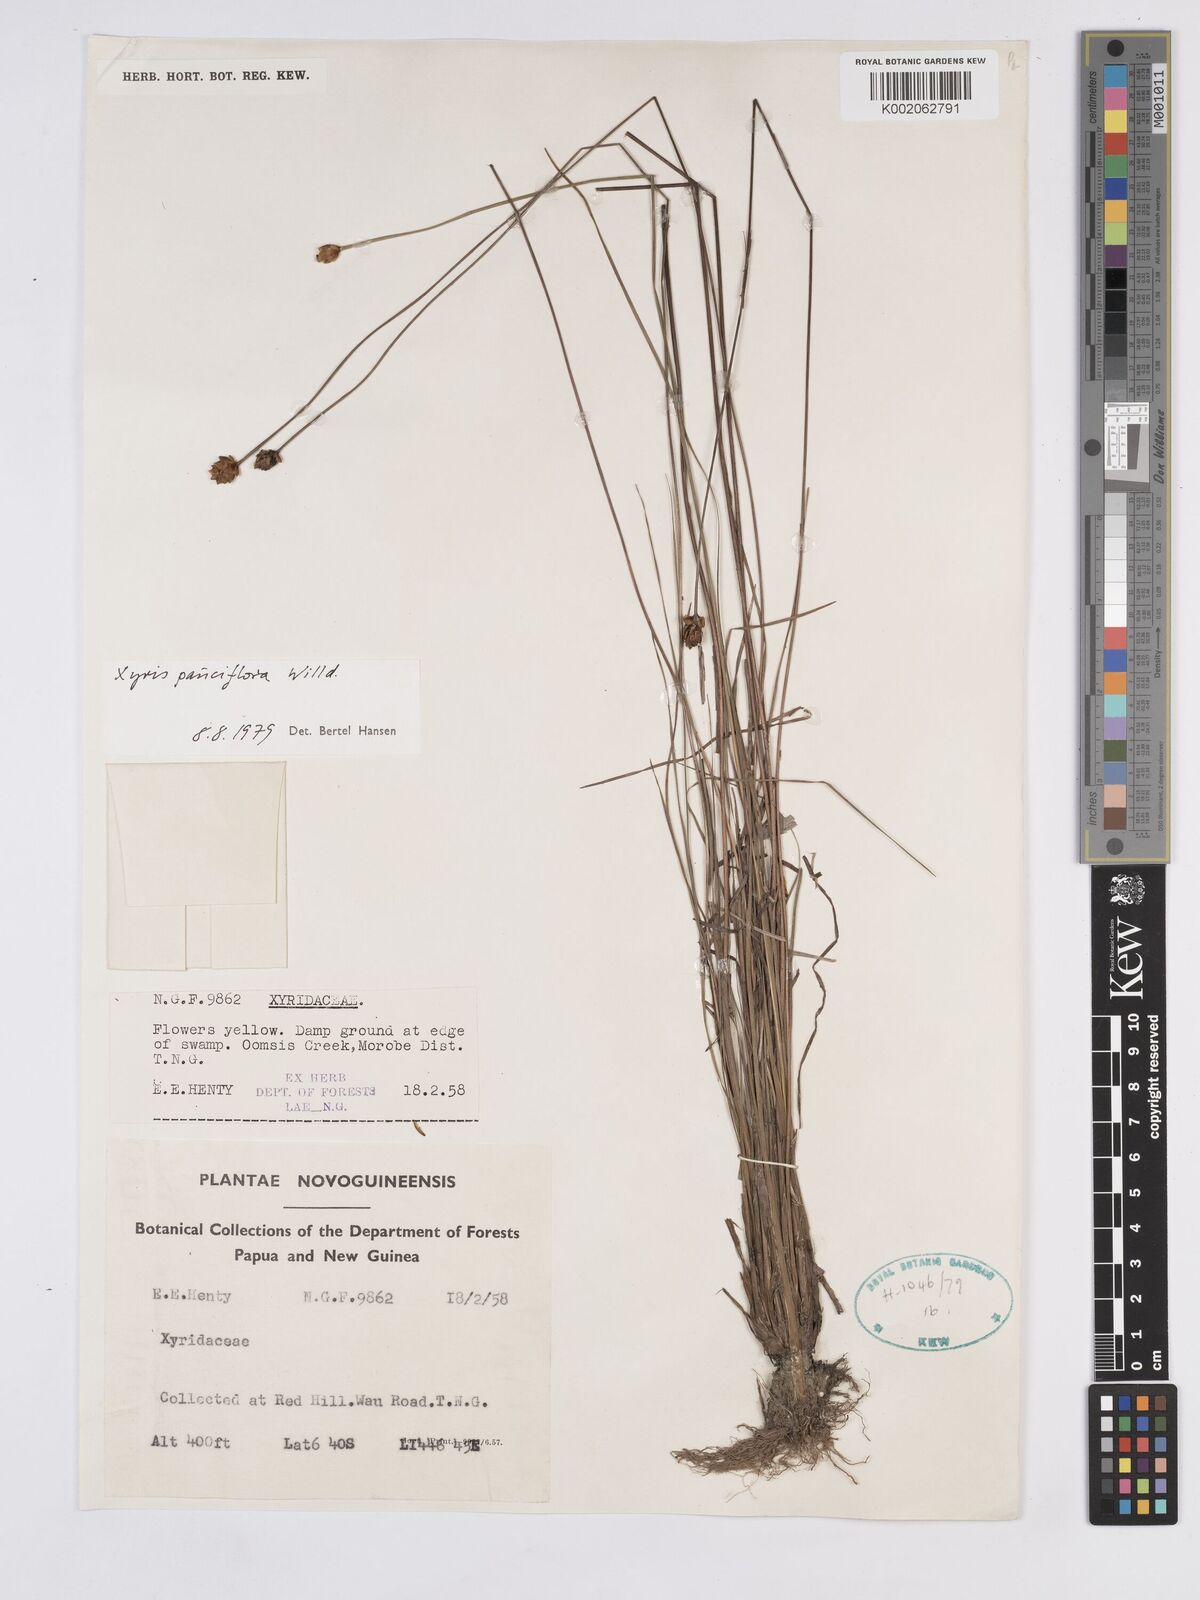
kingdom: Plantae
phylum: Tracheophyta
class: Liliopsida
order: Poales
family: Xyridaceae
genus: Xyris
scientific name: Xyris pauciflora
